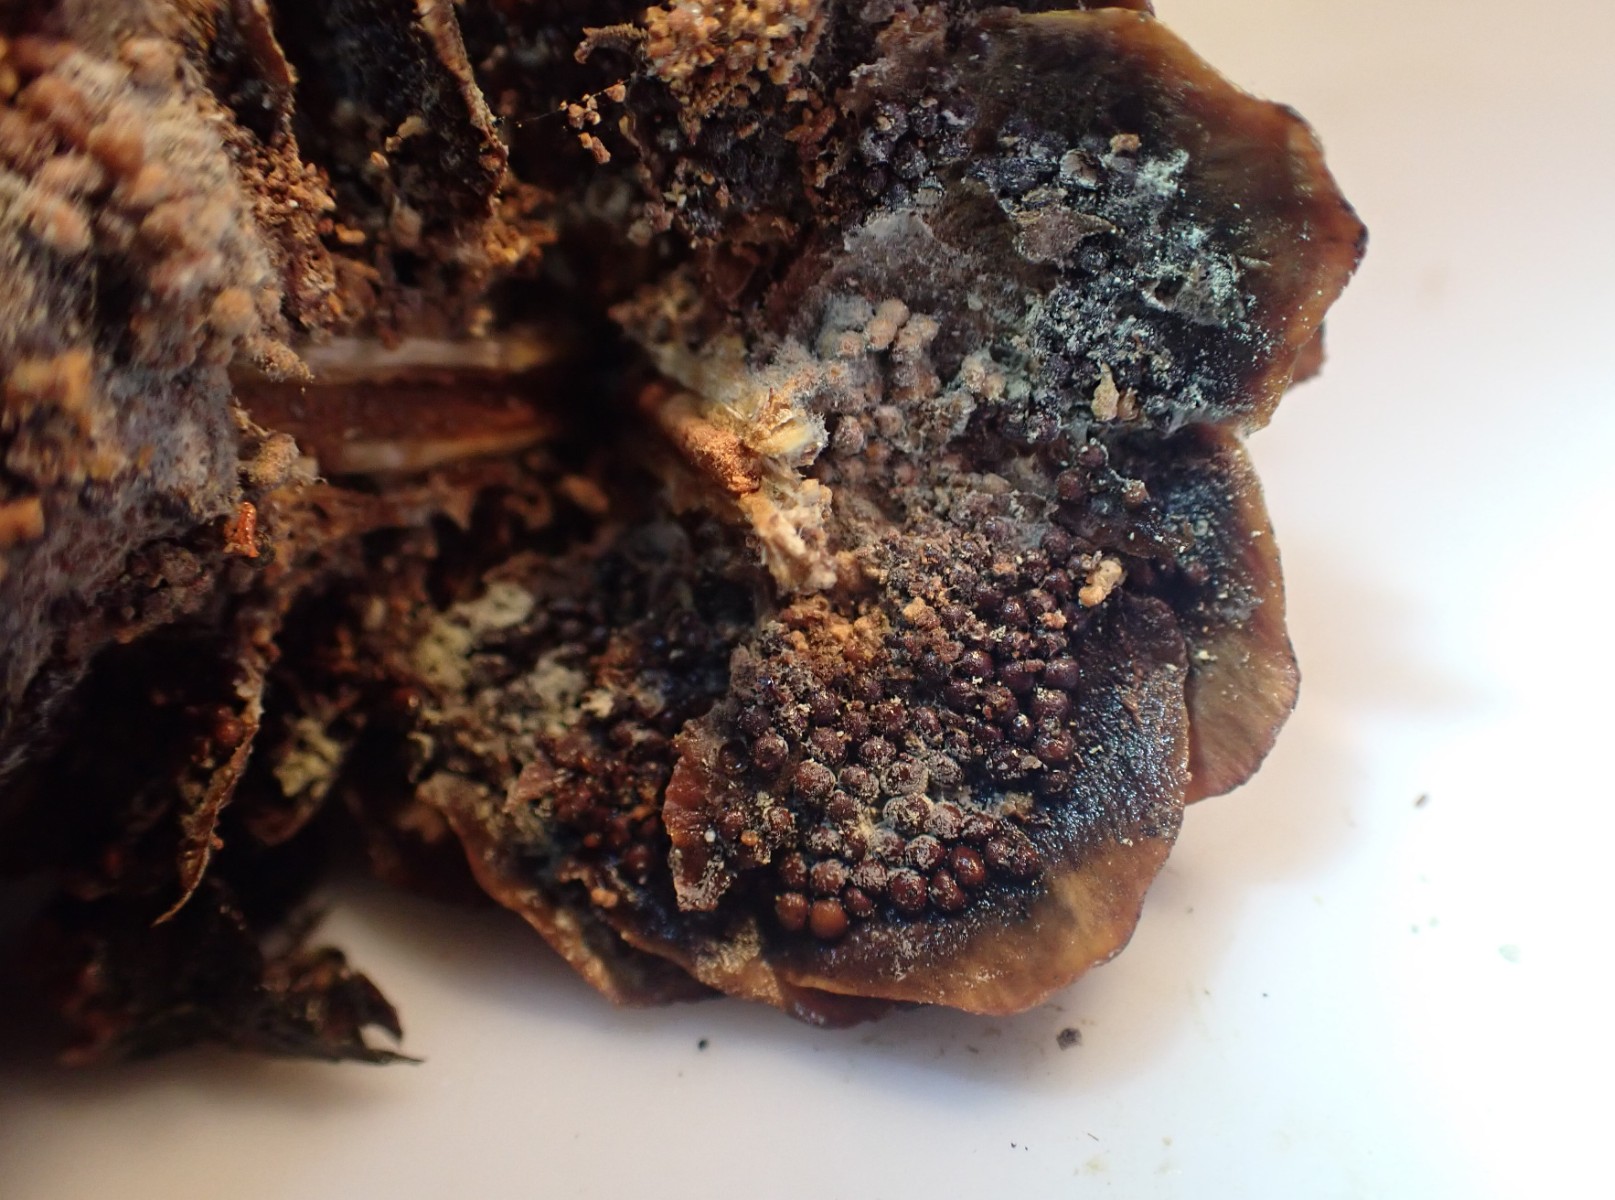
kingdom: Fungi
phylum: Basidiomycota
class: Pucciniomycetes
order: Pucciniales
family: Pucciniastraceae
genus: Thekopsora
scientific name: Thekopsora areolata
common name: grankogle-nålerust
